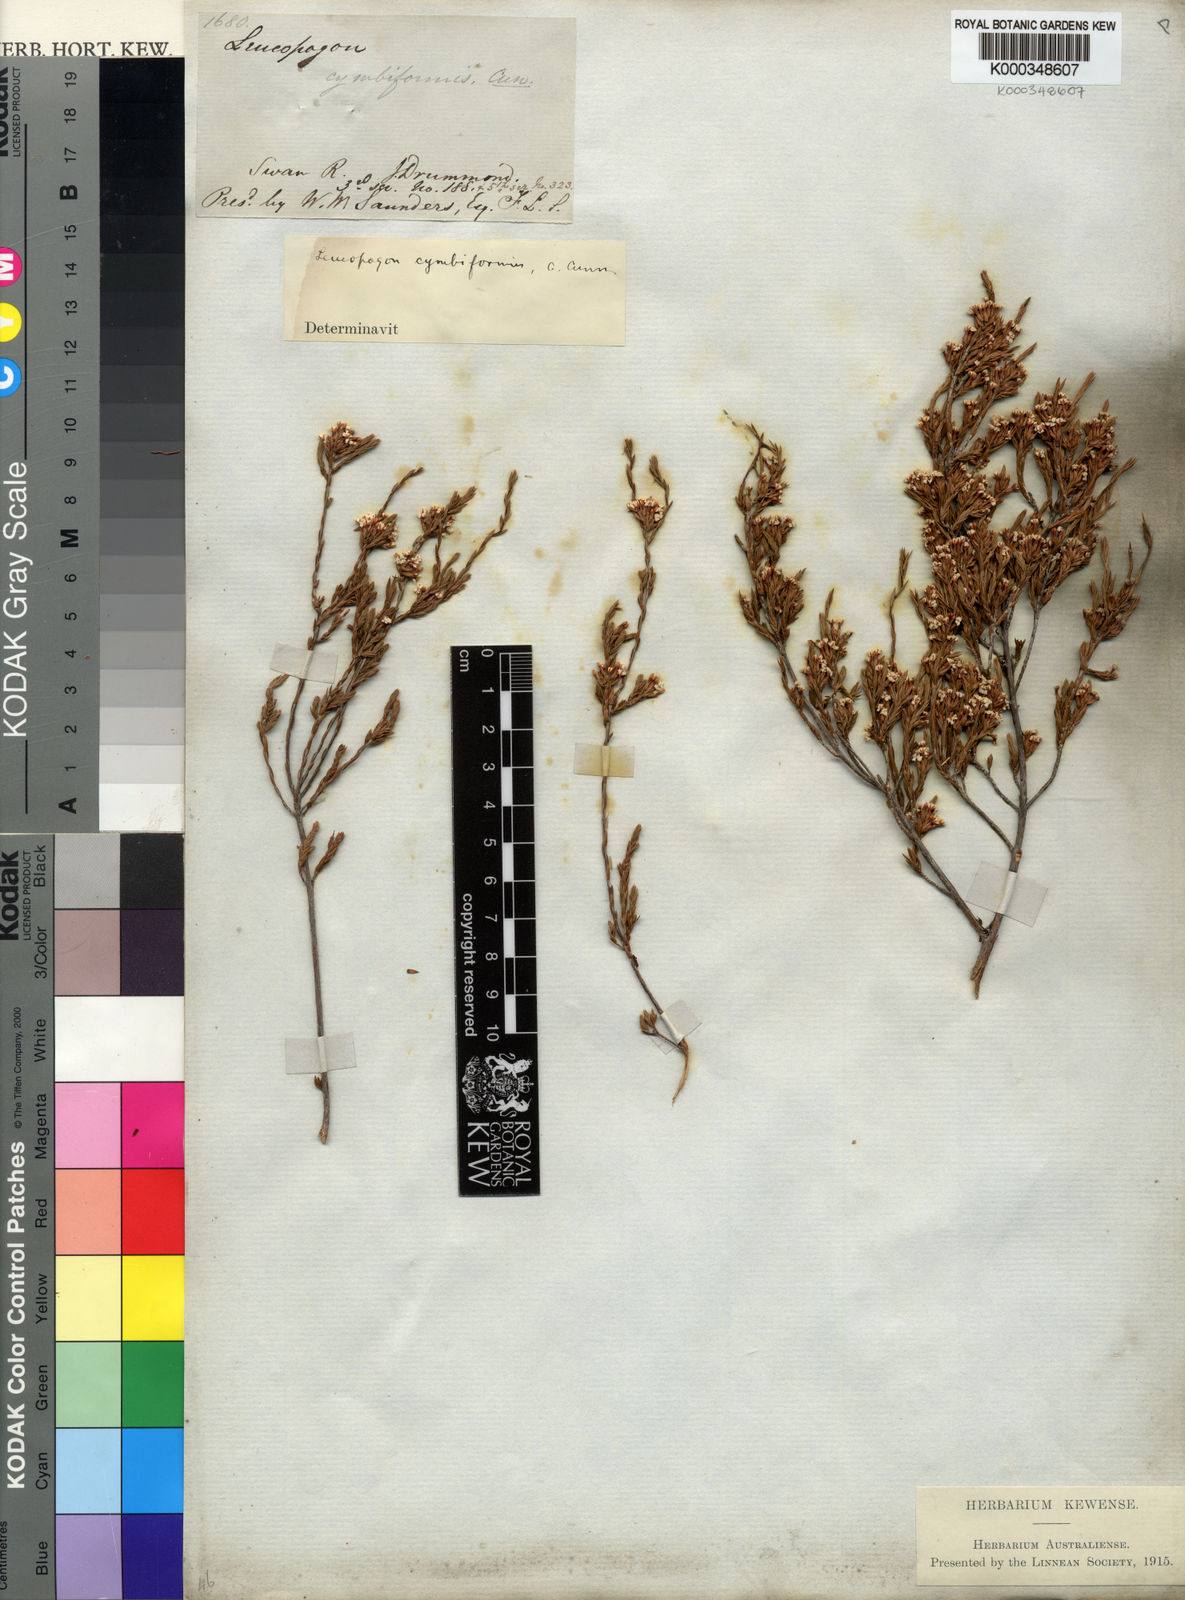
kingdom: Plantae
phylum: Tracheophyta
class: Magnoliopsida
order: Ericales
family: Ericaceae
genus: Styphelia
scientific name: Styphelia cymbiformis
